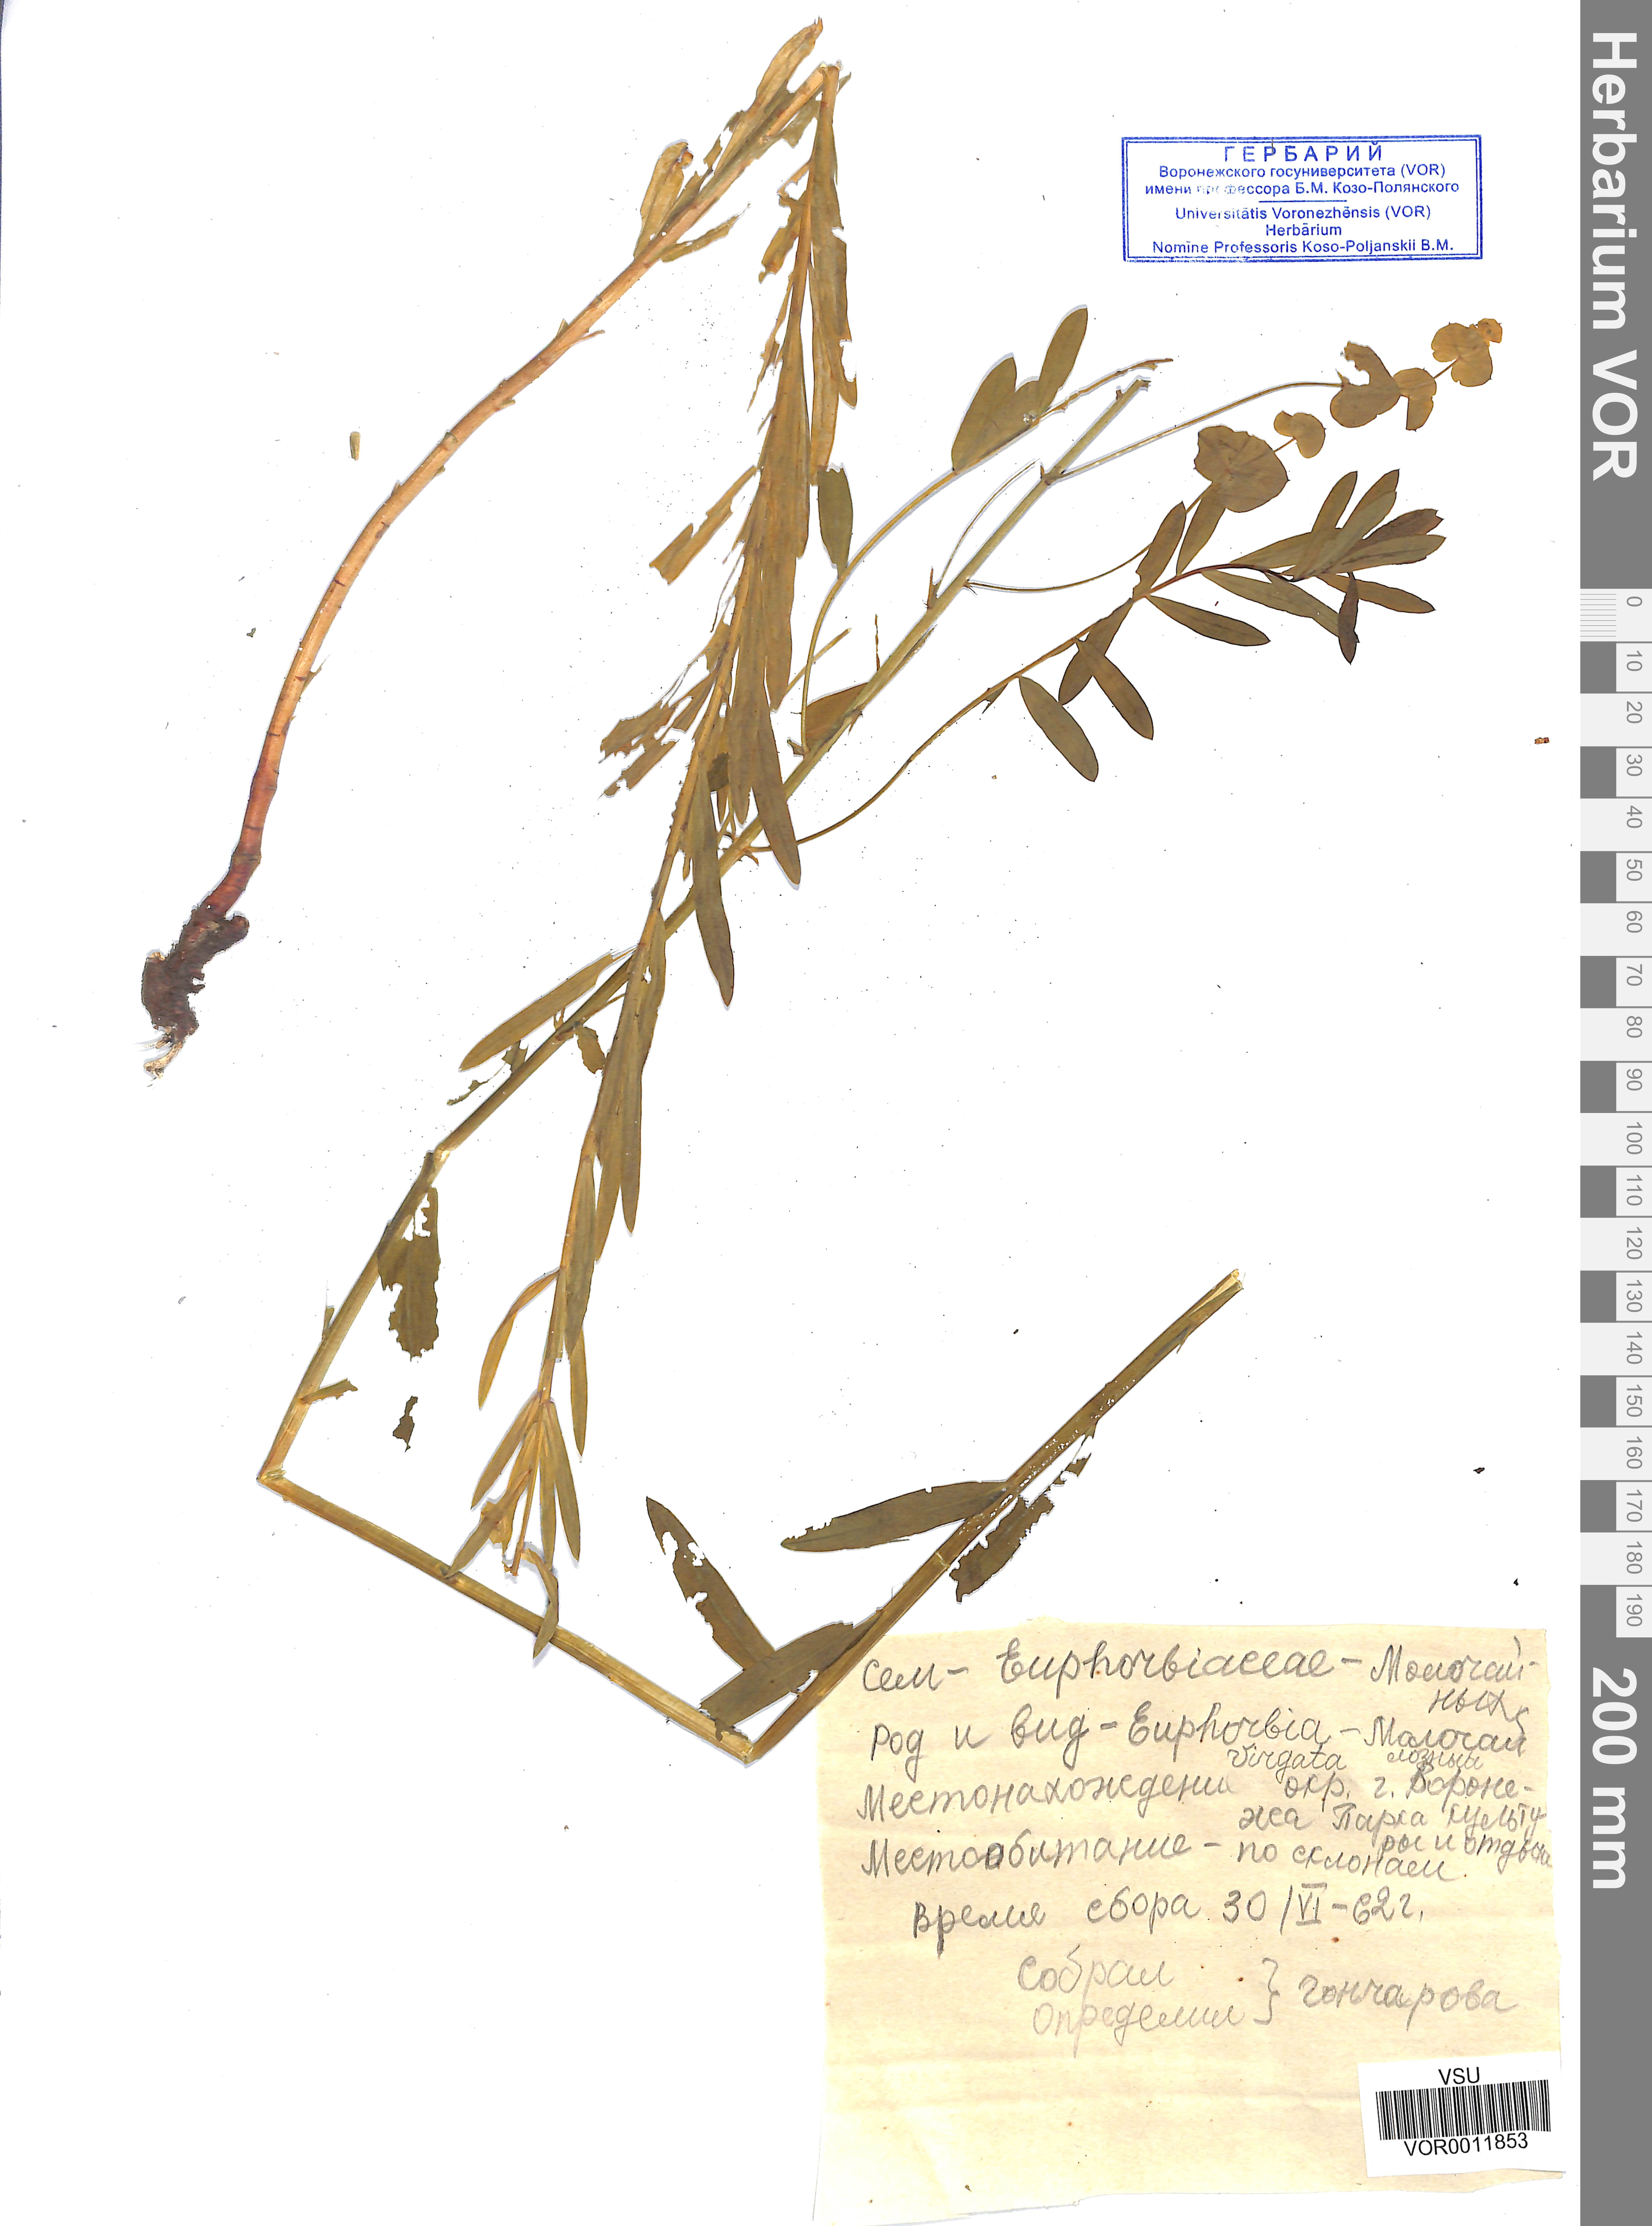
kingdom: Plantae
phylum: Tracheophyta
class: Magnoliopsida
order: Malpighiales
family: Euphorbiaceae
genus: Euphorbia
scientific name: Euphorbia virgata
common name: Leafy spurge
